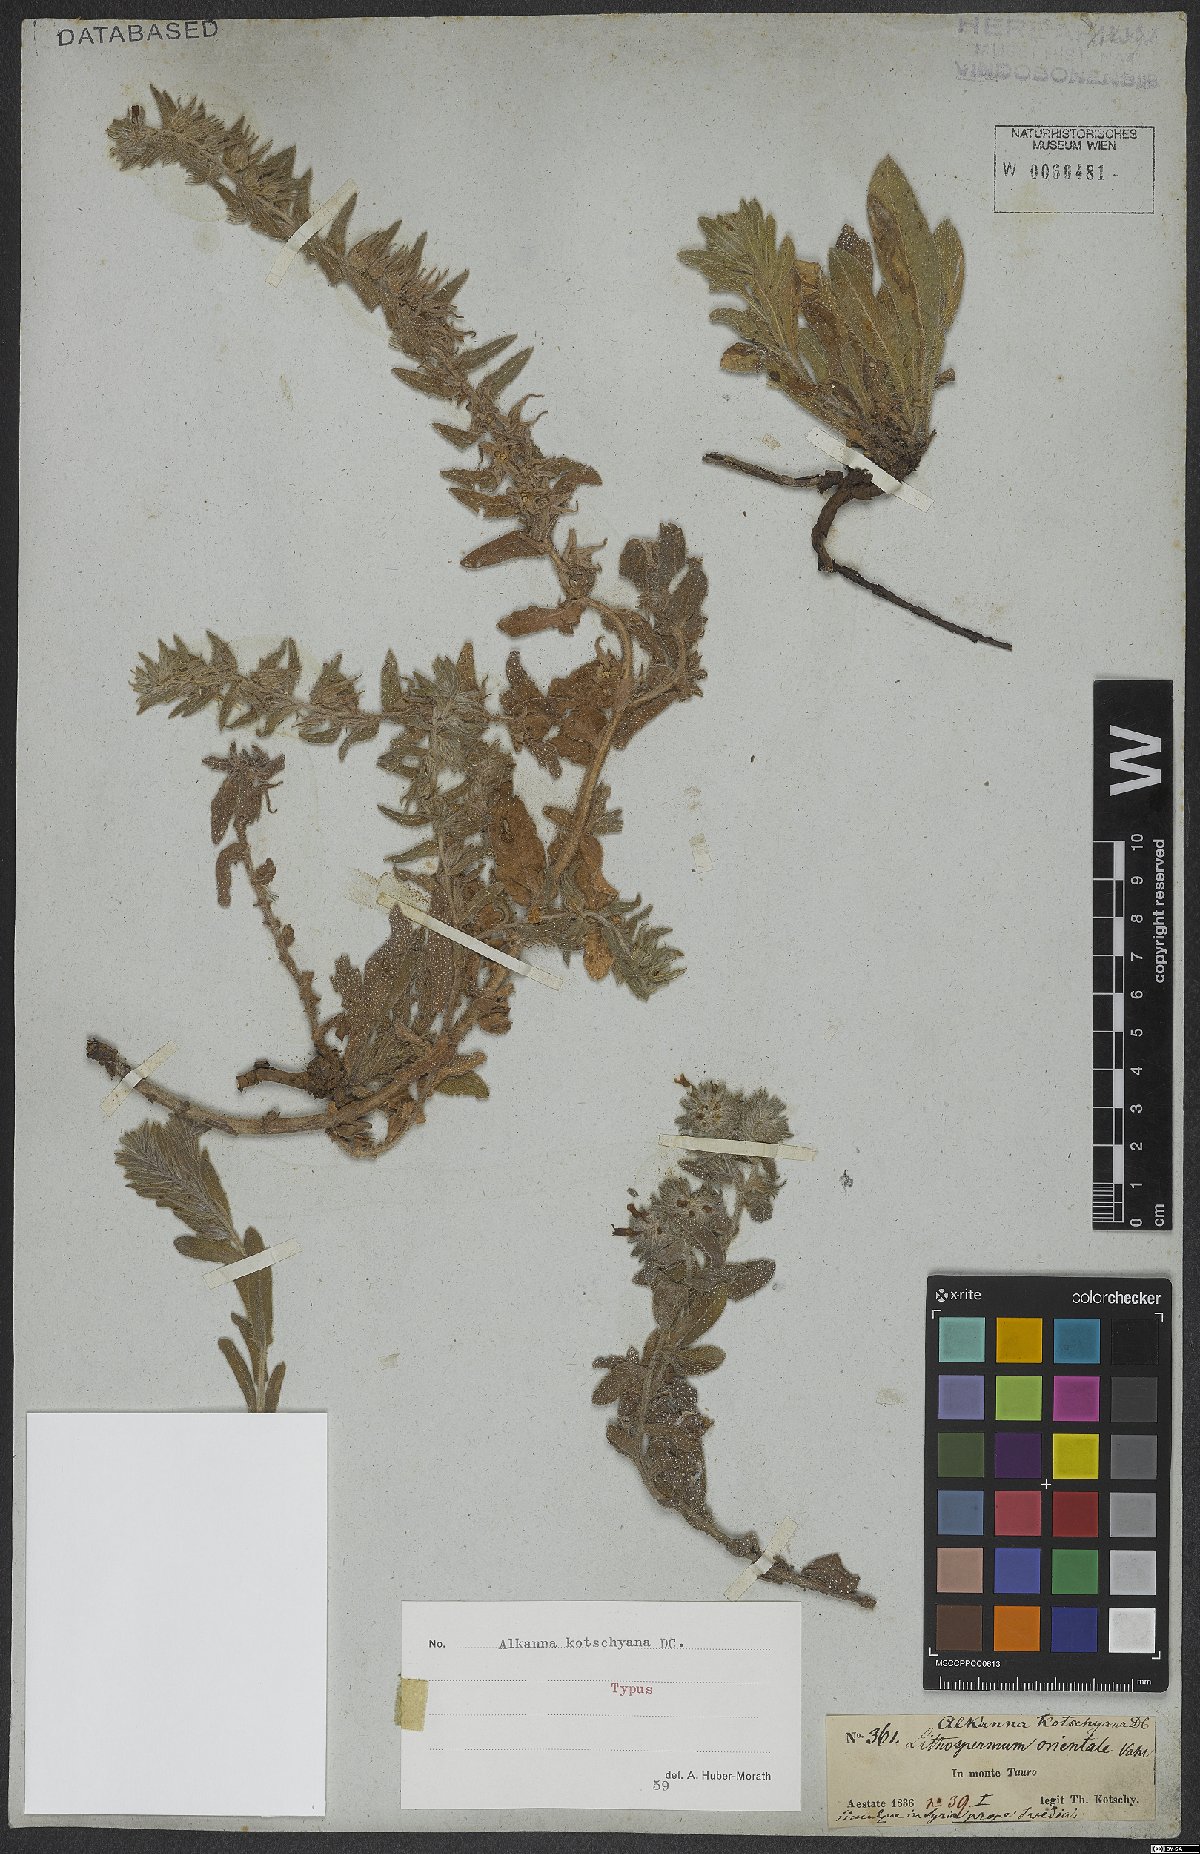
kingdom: Plantae
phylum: Tracheophyta
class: Magnoliopsida
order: Boraginales
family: Boraginaceae
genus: Alkanna
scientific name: Alkanna kotschyana
